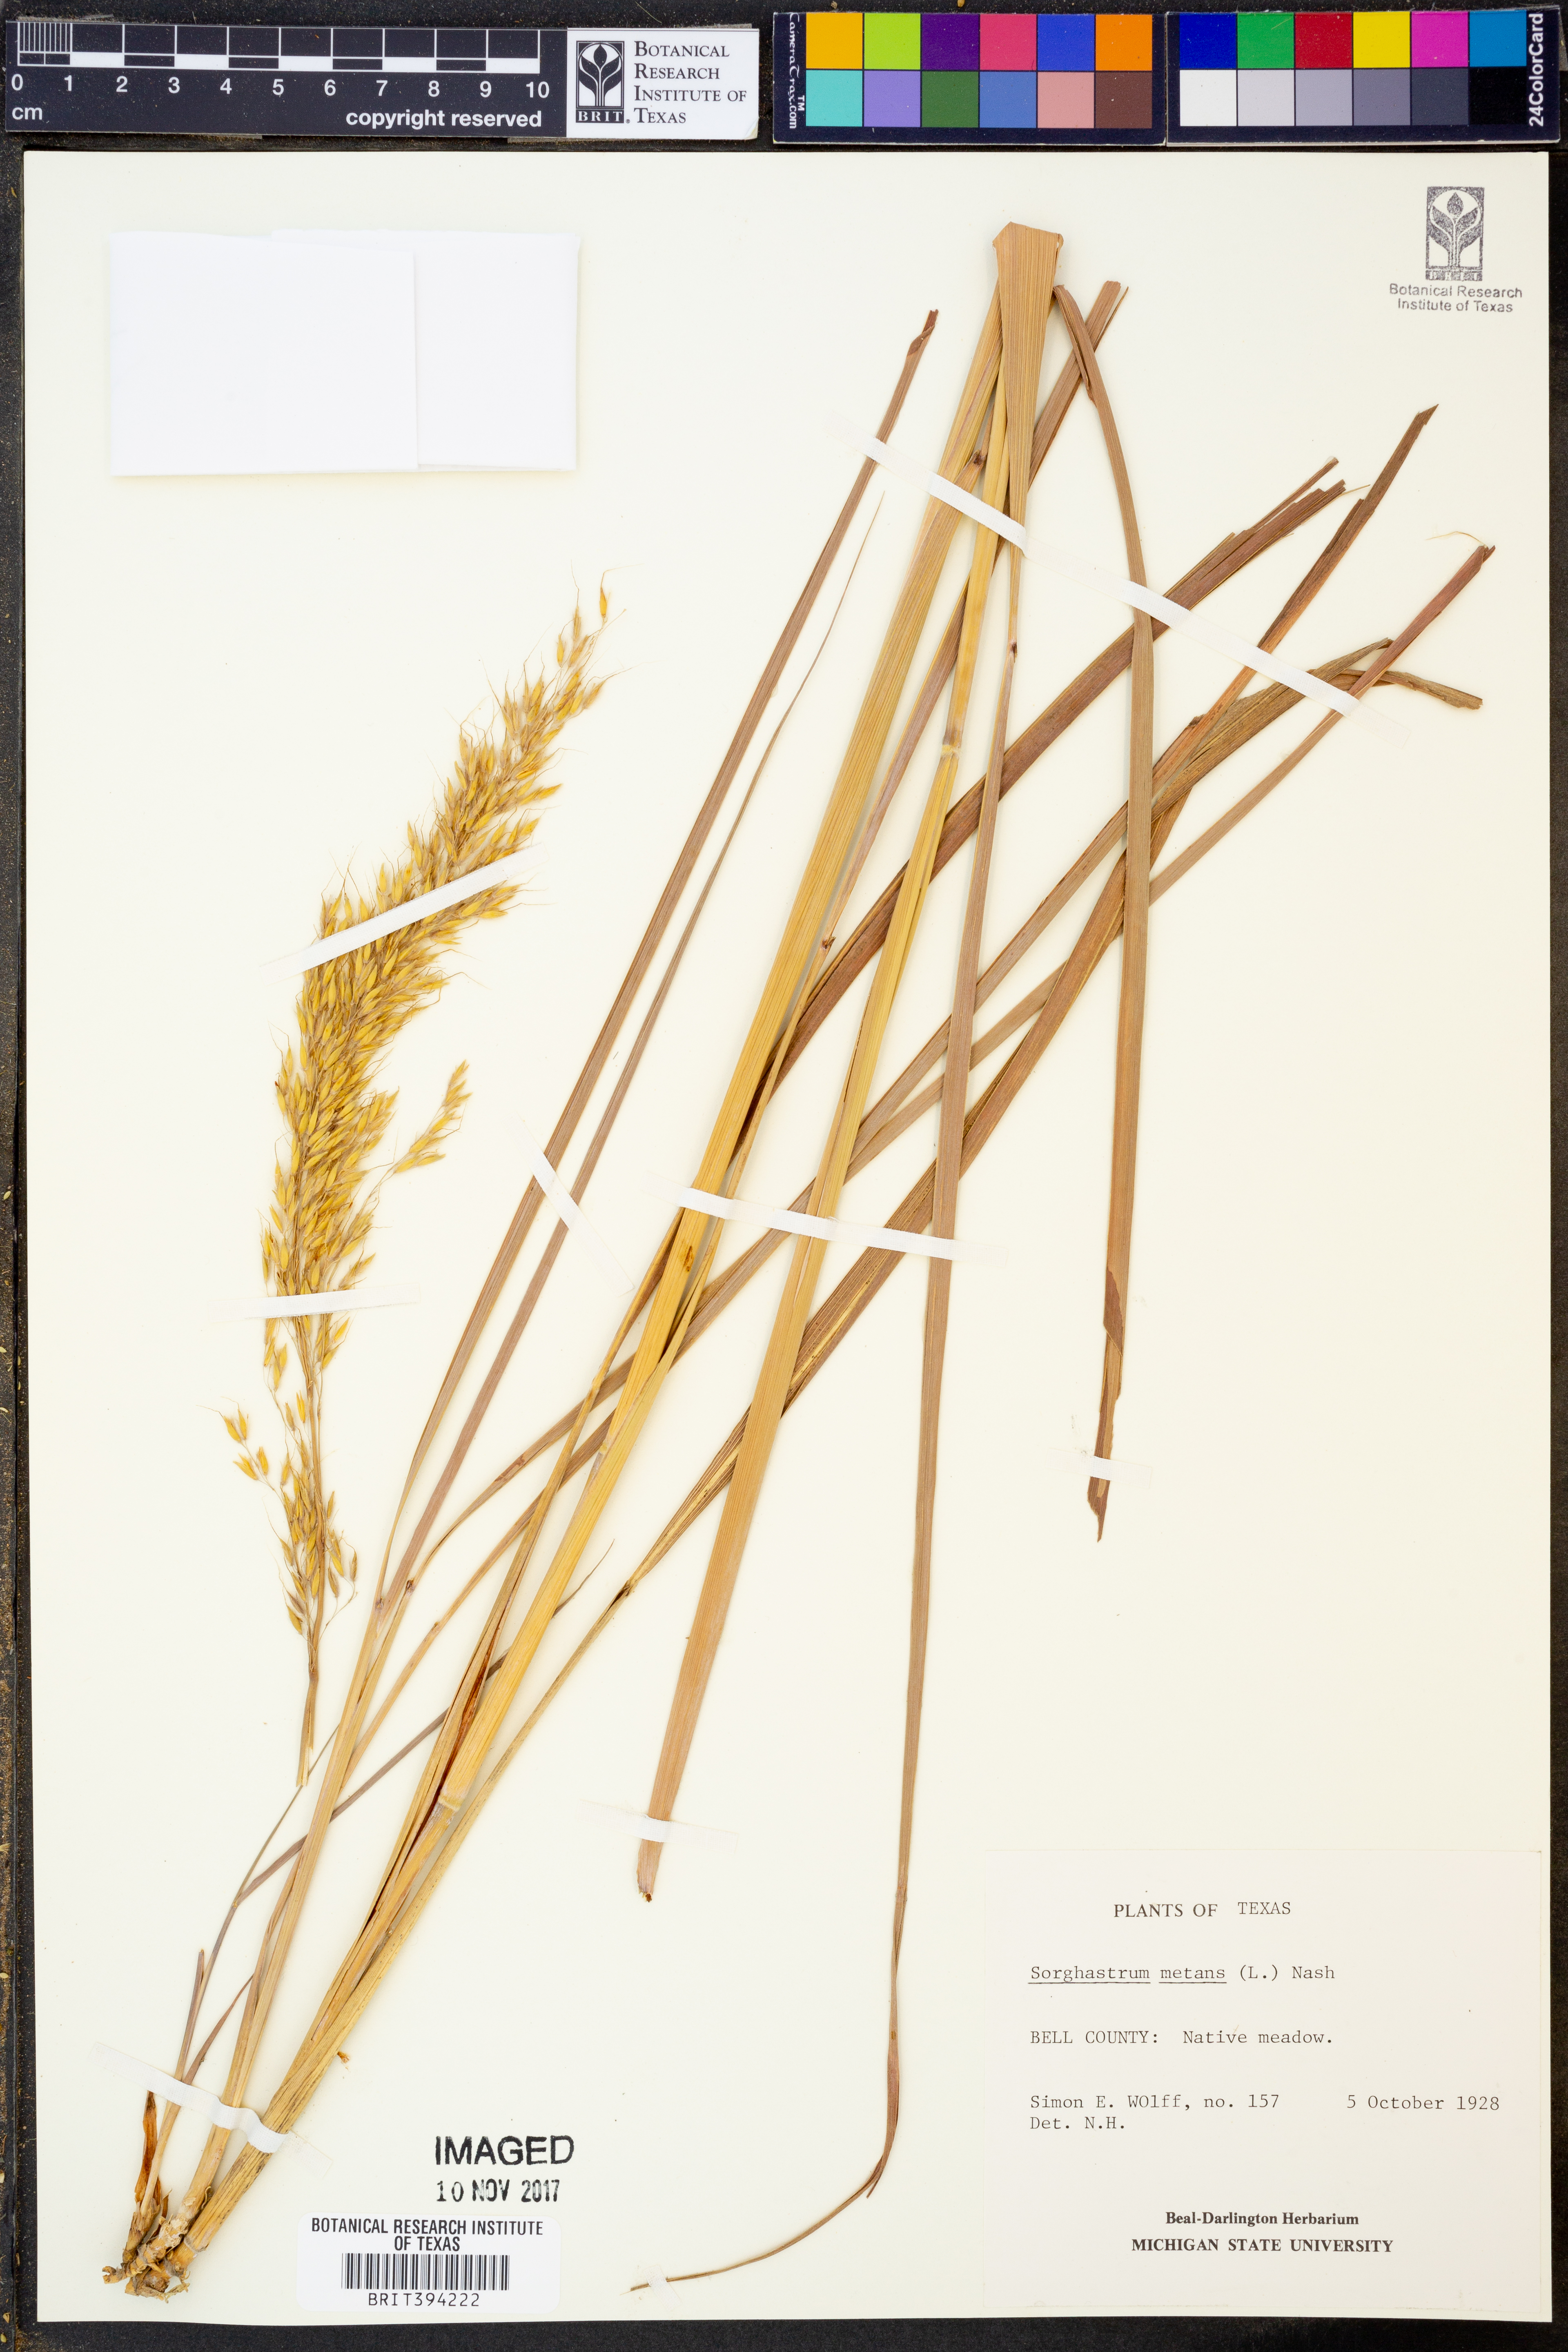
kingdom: Plantae
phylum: Tracheophyta
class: Liliopsida
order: Poales
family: Poaceae
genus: Sorghastrum
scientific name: Sorghastrum nutans
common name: Indian grass
